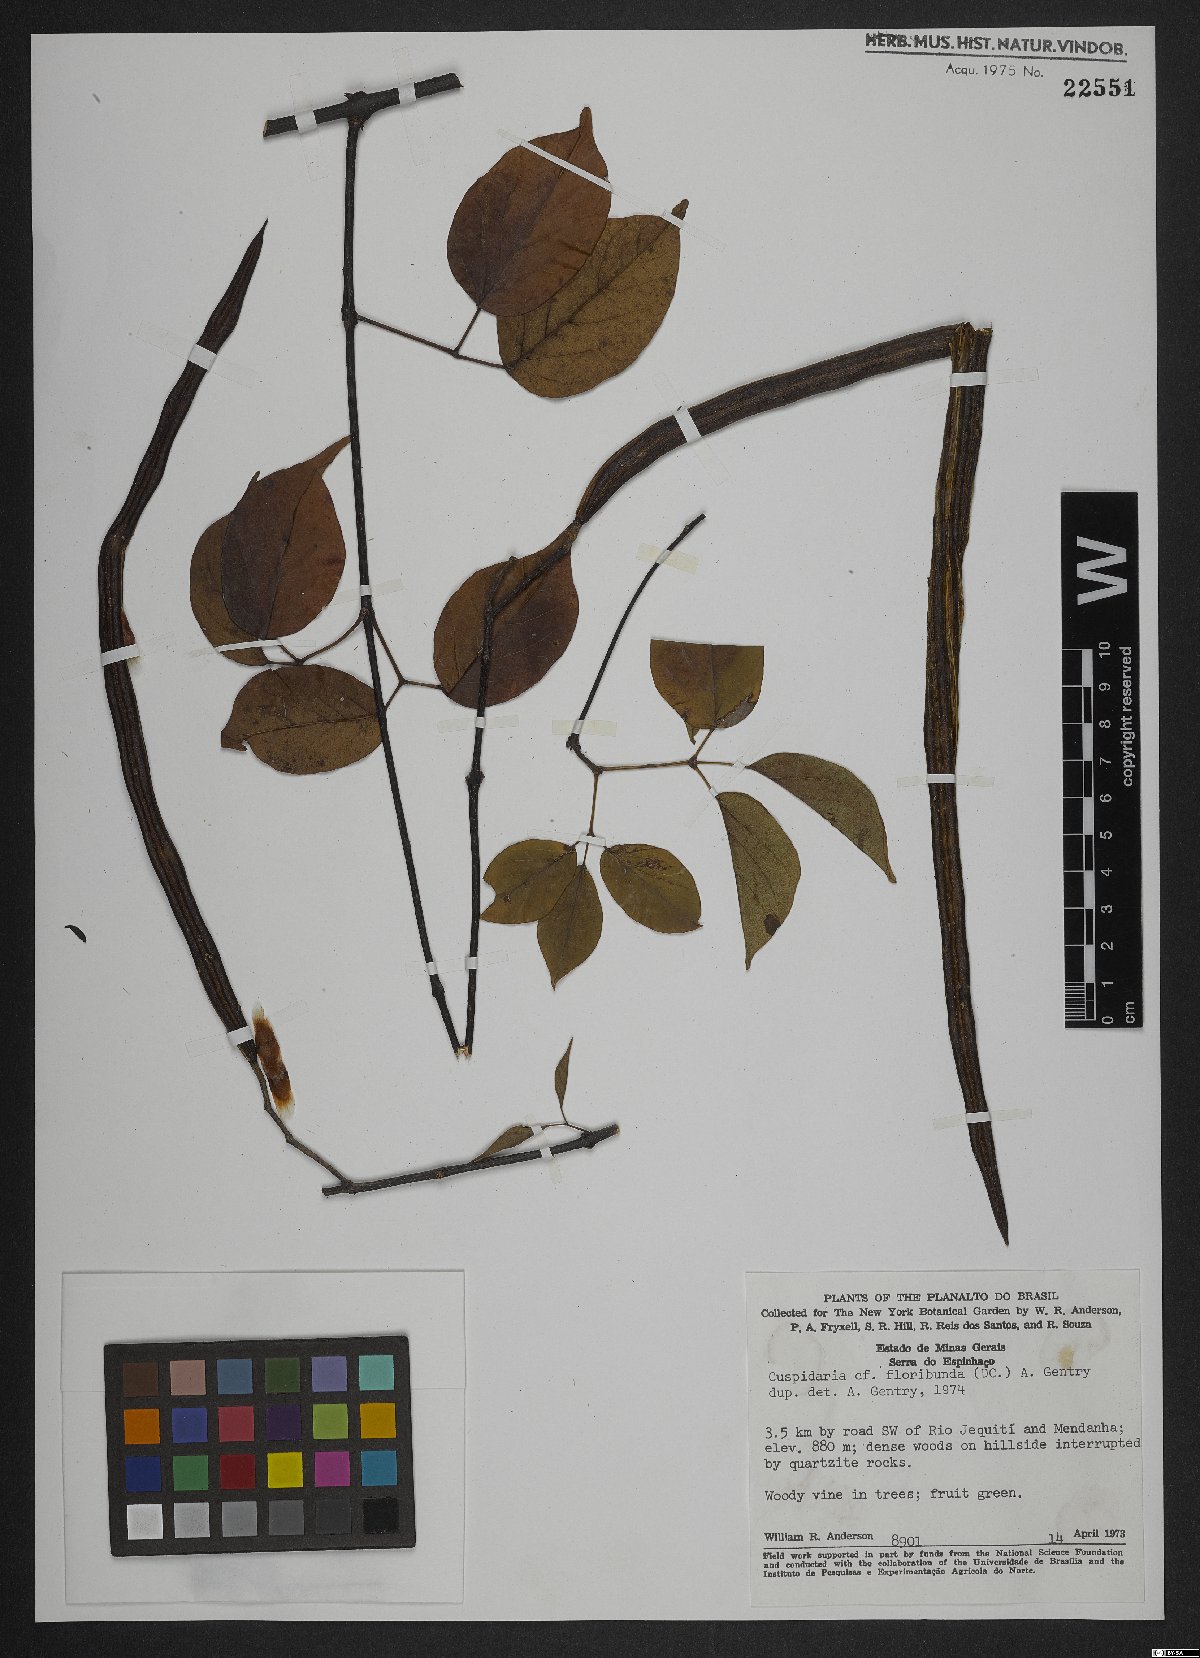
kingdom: Plantae
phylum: Tracheophyta
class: Magnoliopsida
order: Lamiales
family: Bignoniaceae
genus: Cuspidaria
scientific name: Cuspidaria floribunda
